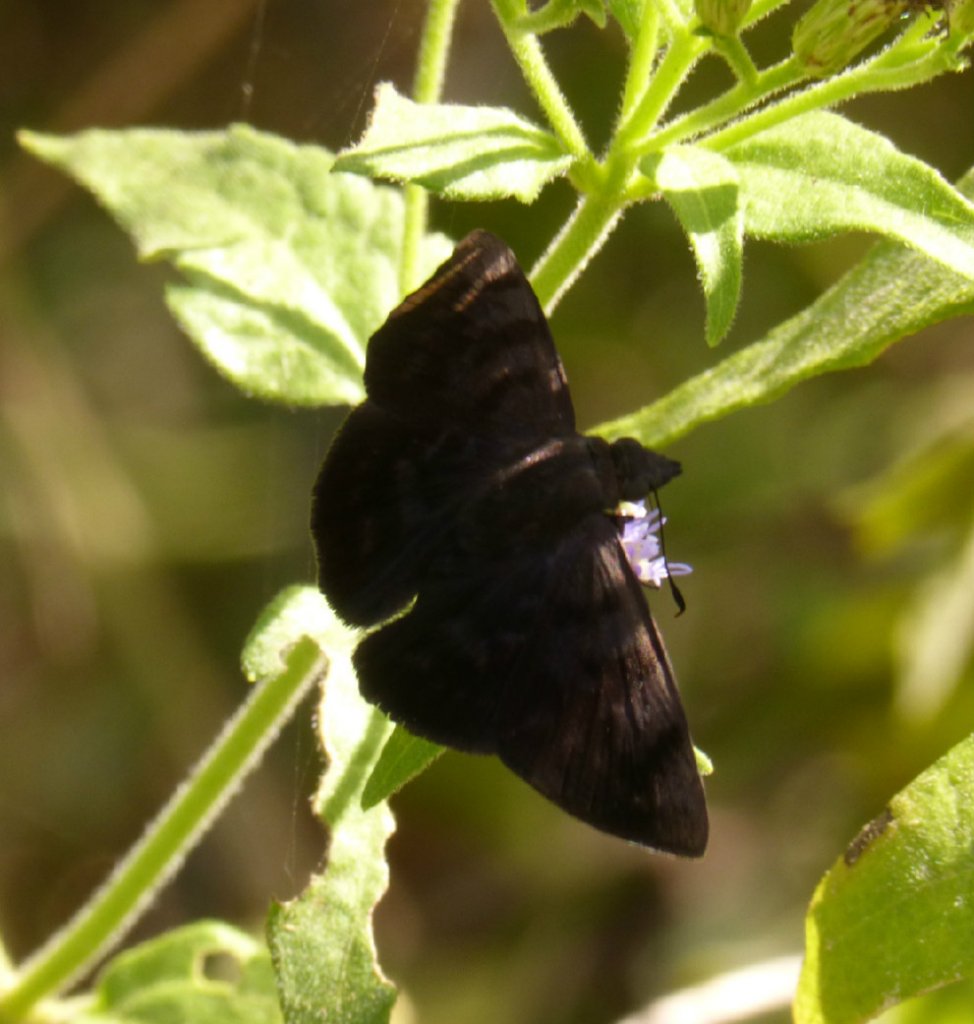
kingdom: Animalia
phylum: Arthropoda
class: Insecta
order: Lepidoptera
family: Hesperiidae
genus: Pellicia
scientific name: Pellicia costimacula
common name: Glazed Pellicia
